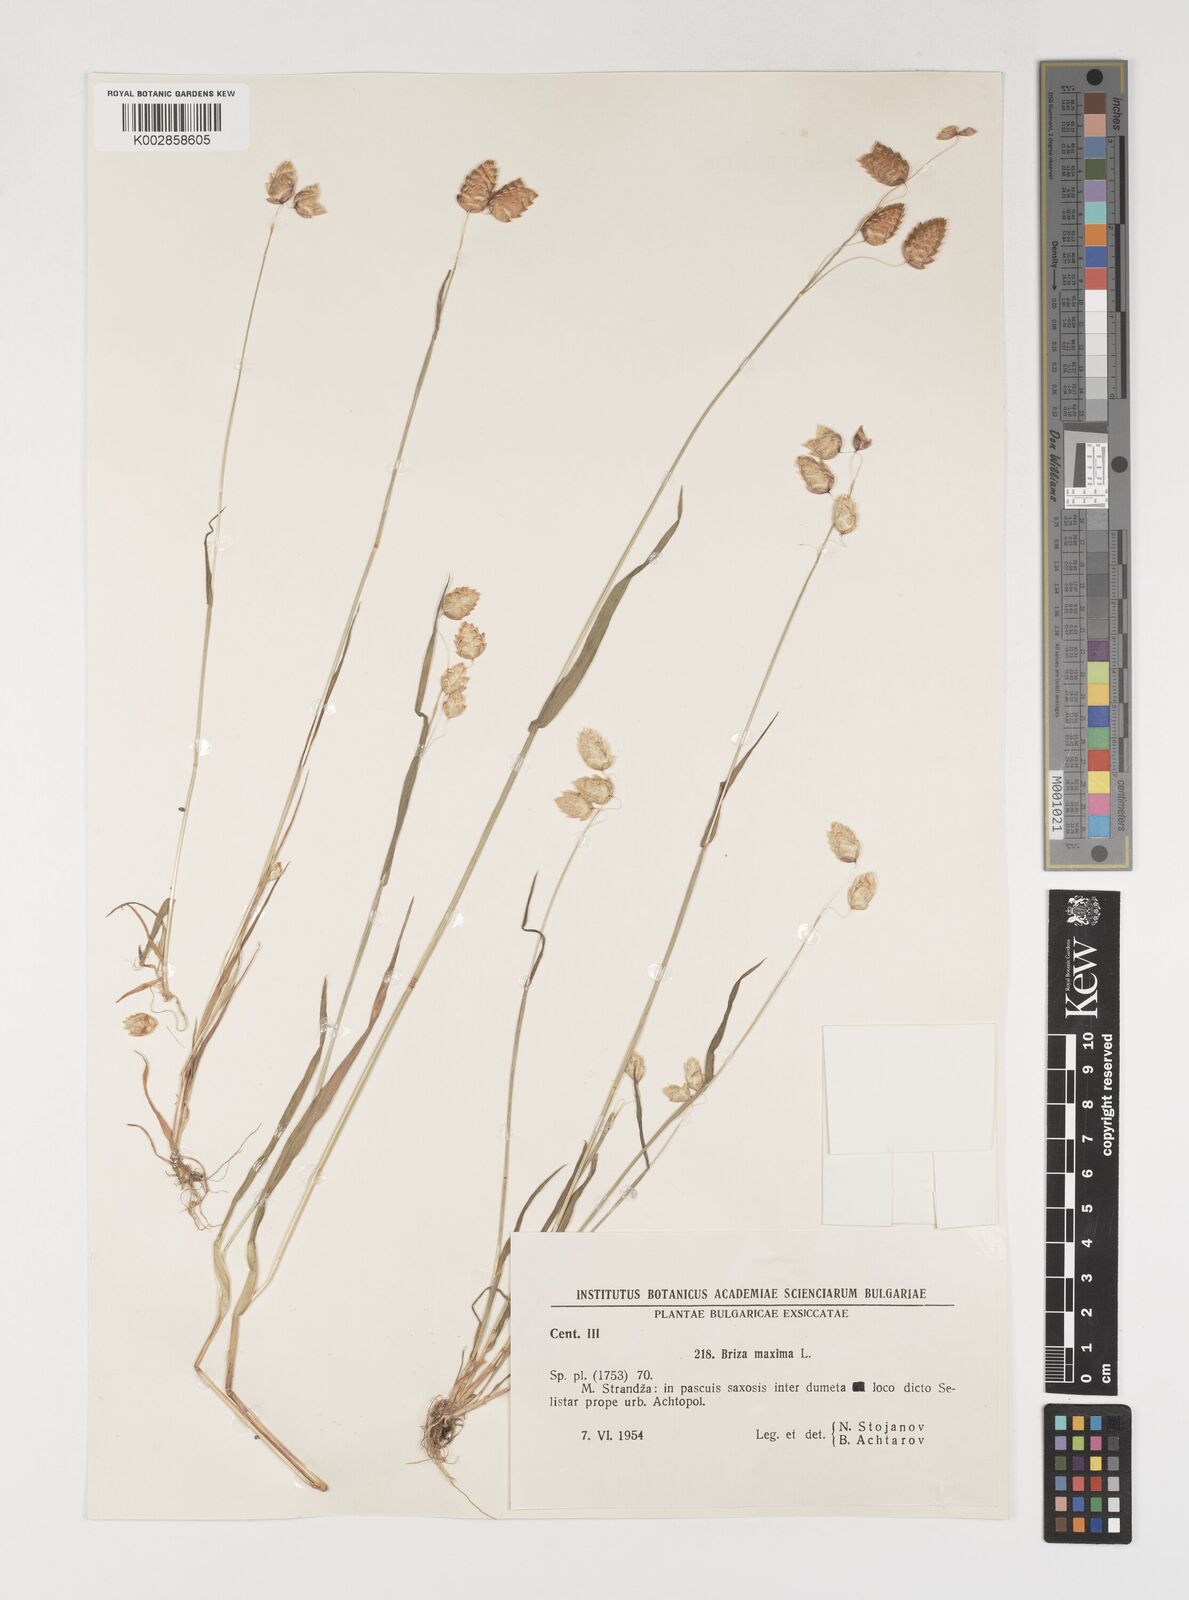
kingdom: Plantae
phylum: Tracheophyta
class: Liliopsida
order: Poales
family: Poaceae
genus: Briza
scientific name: Briza maxima
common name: Big quakinggrass
